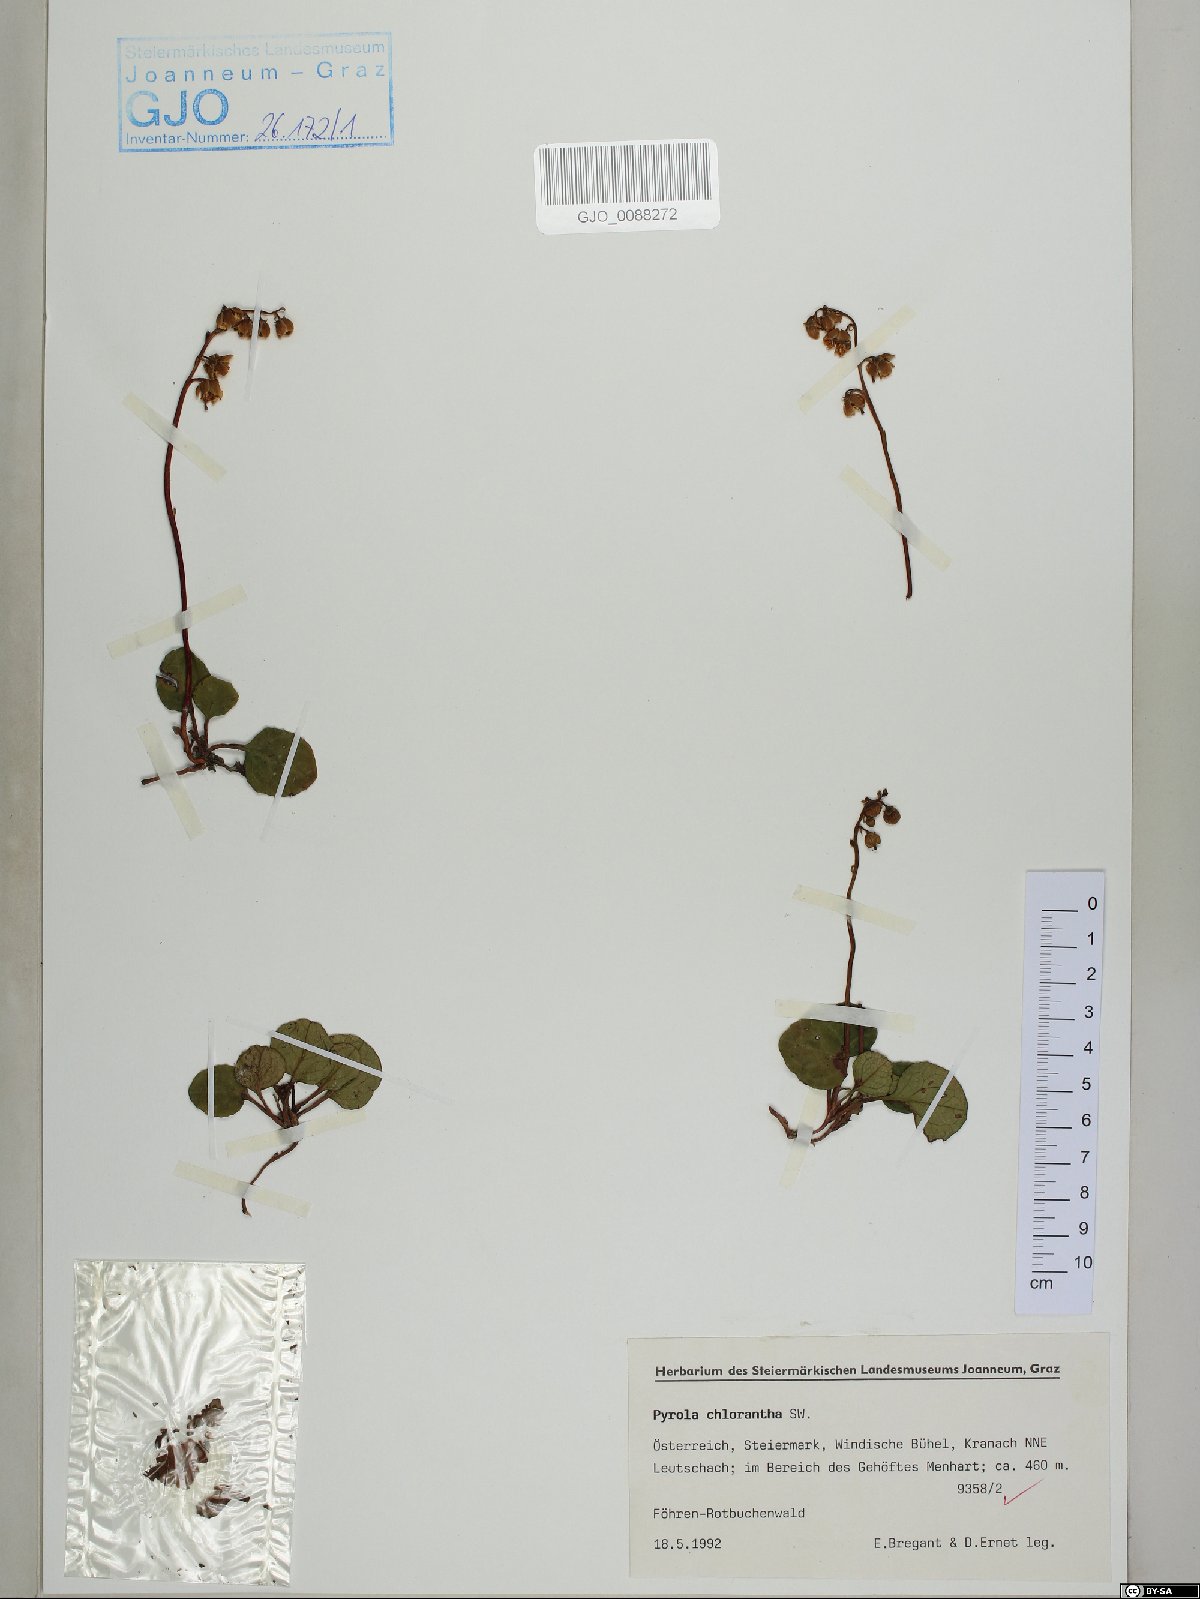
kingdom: Plantae
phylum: Tracheophyta
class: Magnoliopsida
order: Ericales
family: Ericaceae
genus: Pyrola
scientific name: Pyrola chlorantha
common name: Green wintergreen
